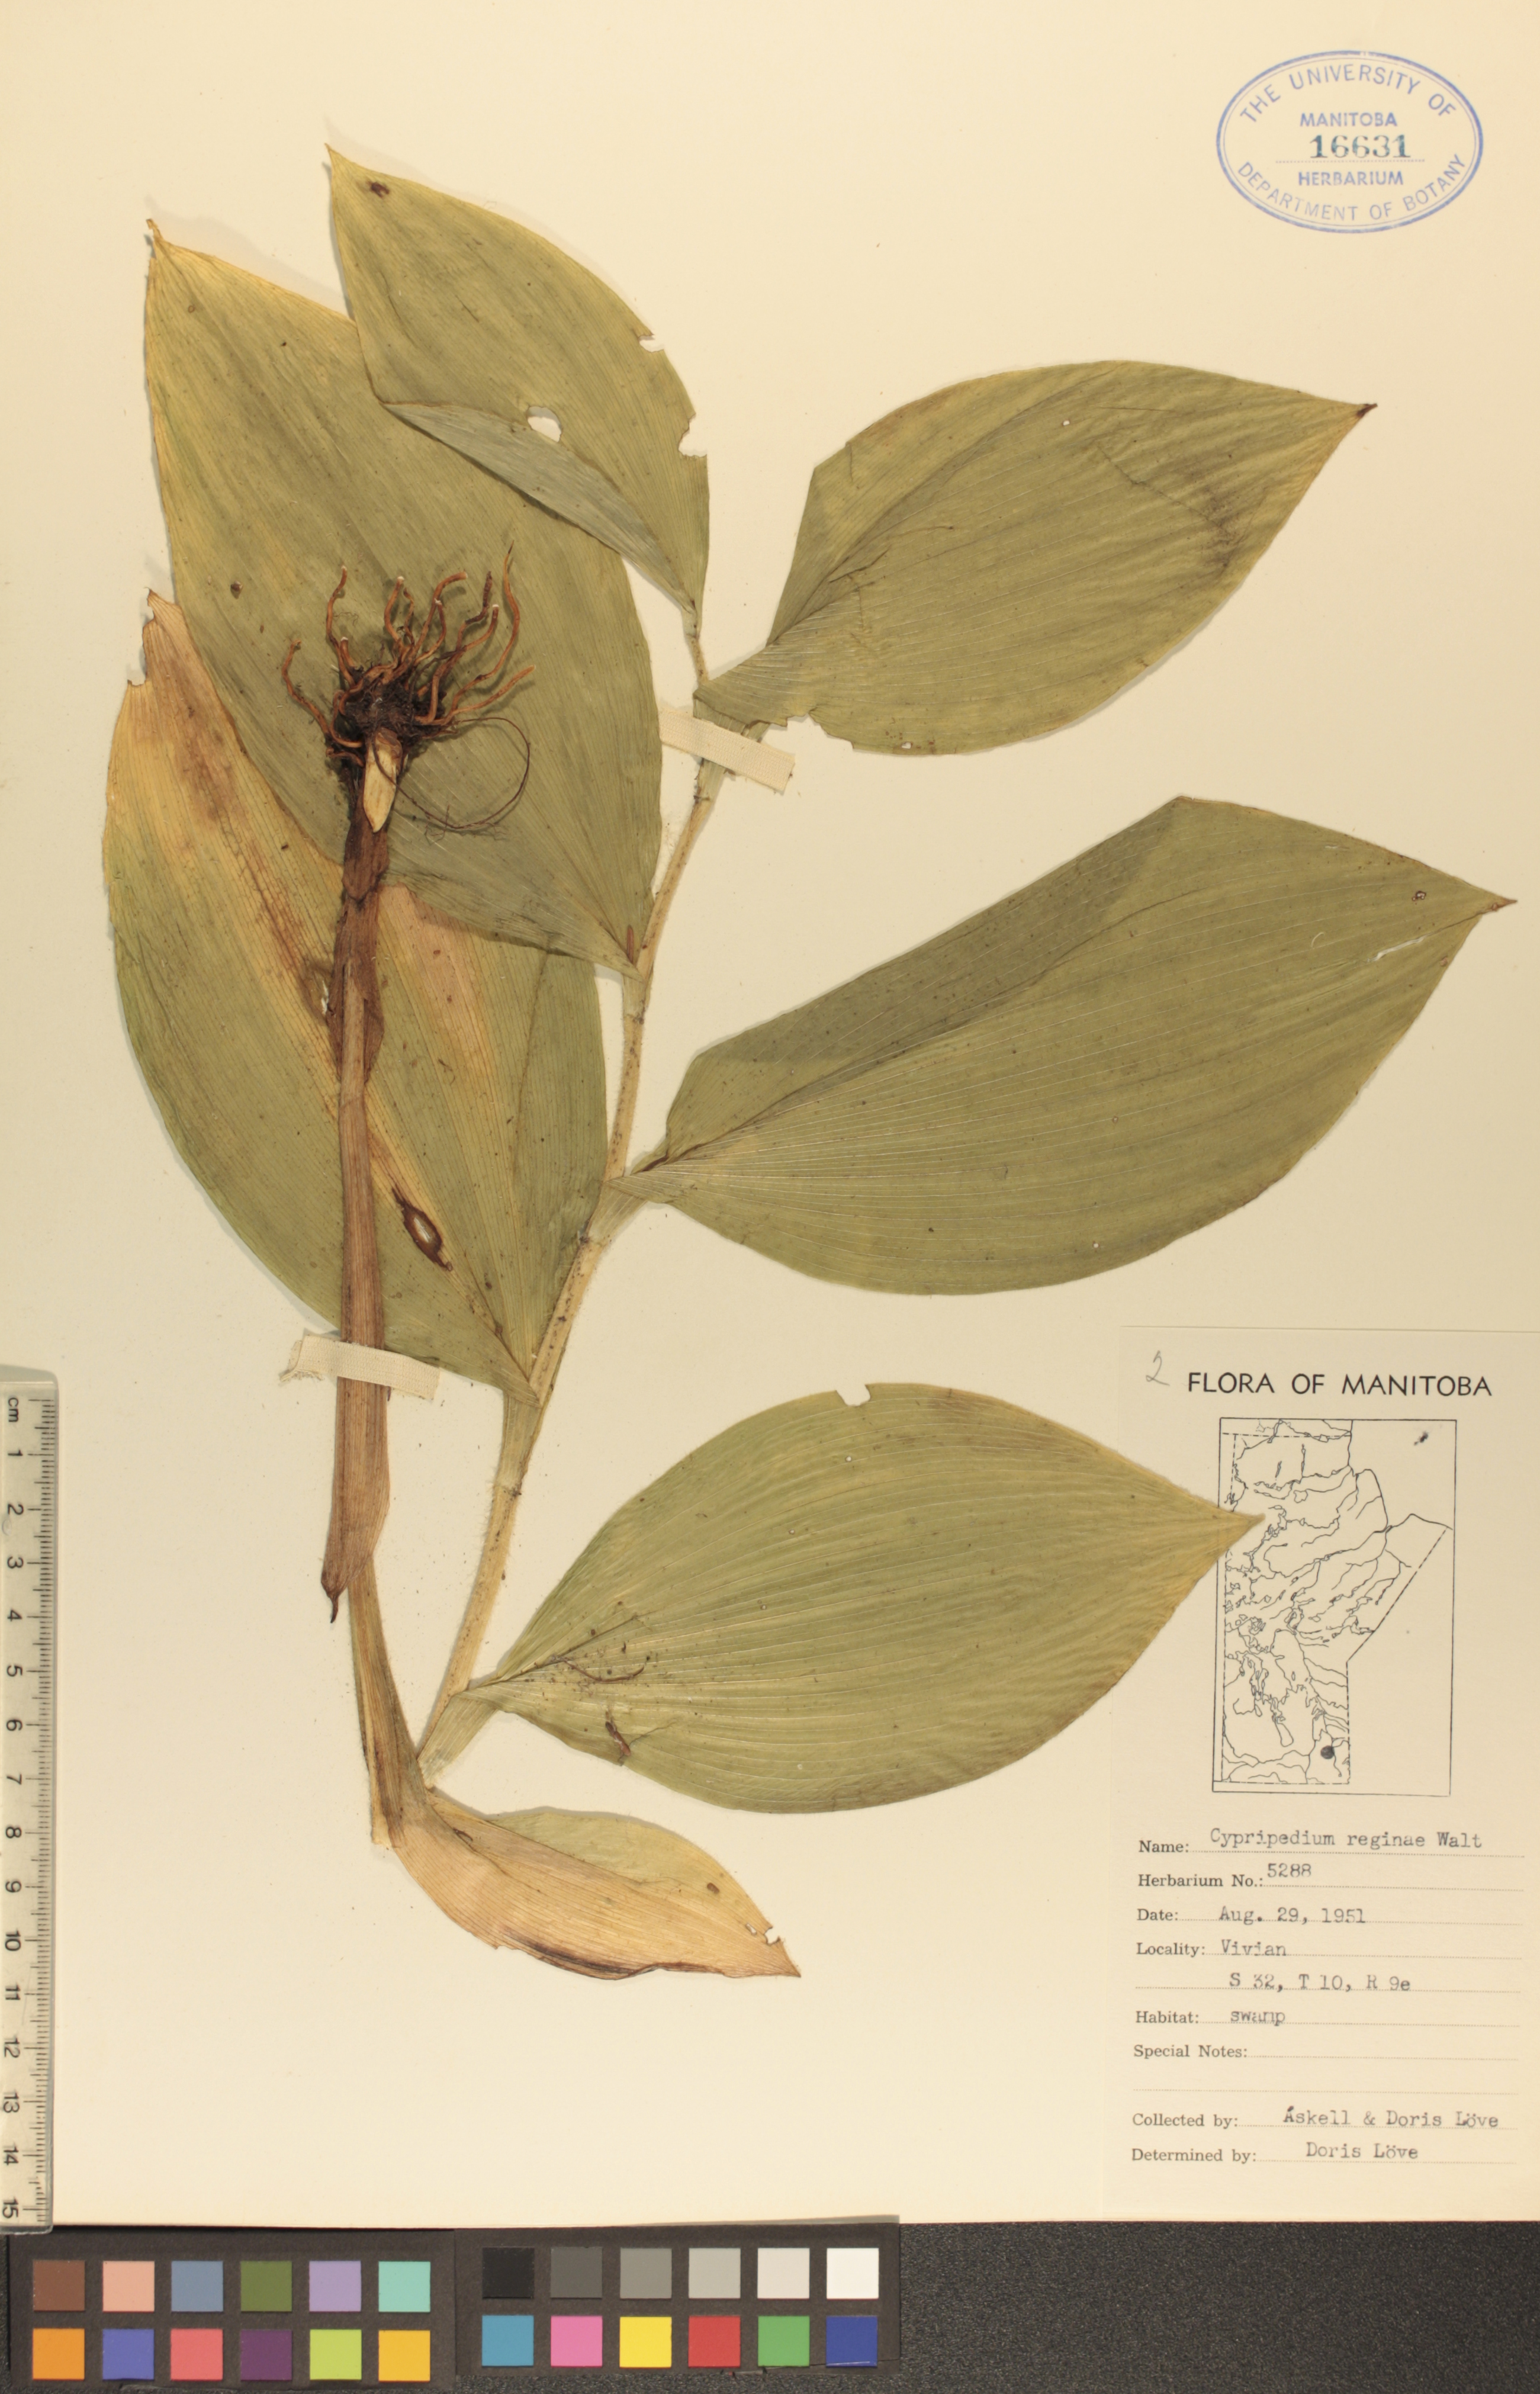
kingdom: Plantae
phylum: Tracheophyta
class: Liliopsida
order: Asparagales
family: Orchidaceae
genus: Cypripedium
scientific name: Cypripedium reginae
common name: Queen lady's-slipper
